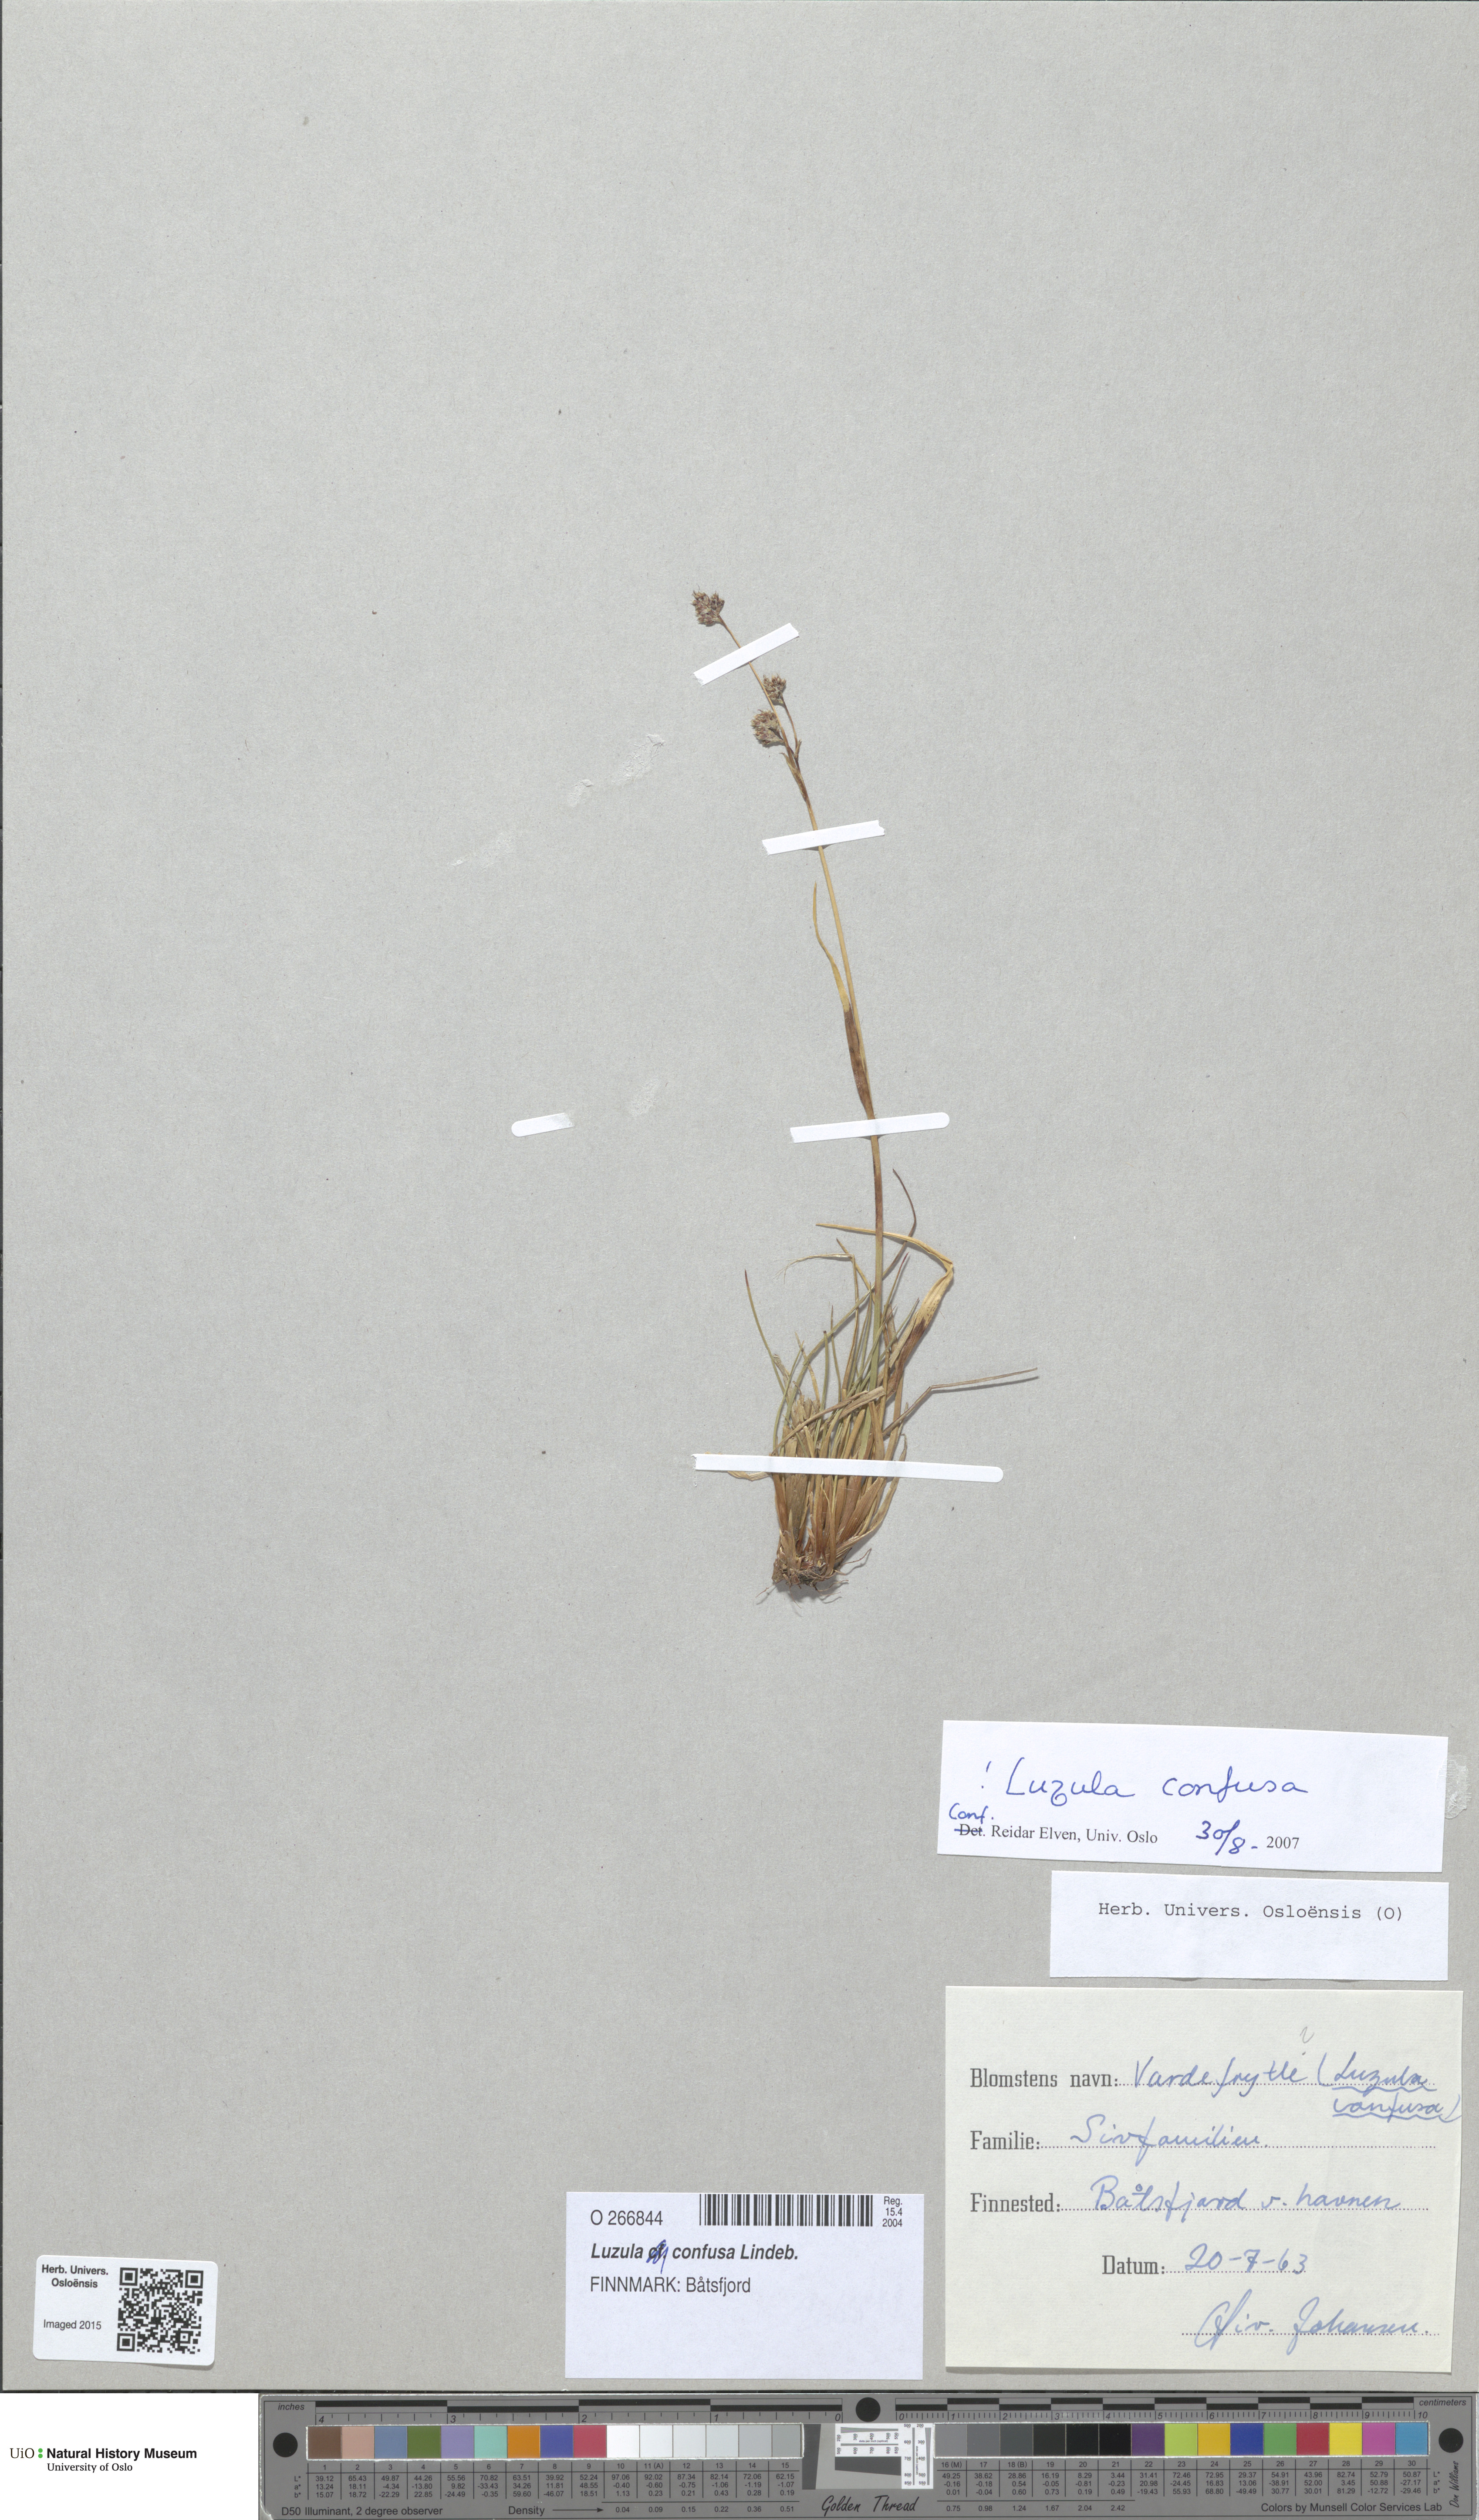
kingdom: Plantae
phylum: Tracheophyta
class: Liliopsida
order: Poales
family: Juncaceae
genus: Luzula
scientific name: Luzula confusa
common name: Northern wood rush
